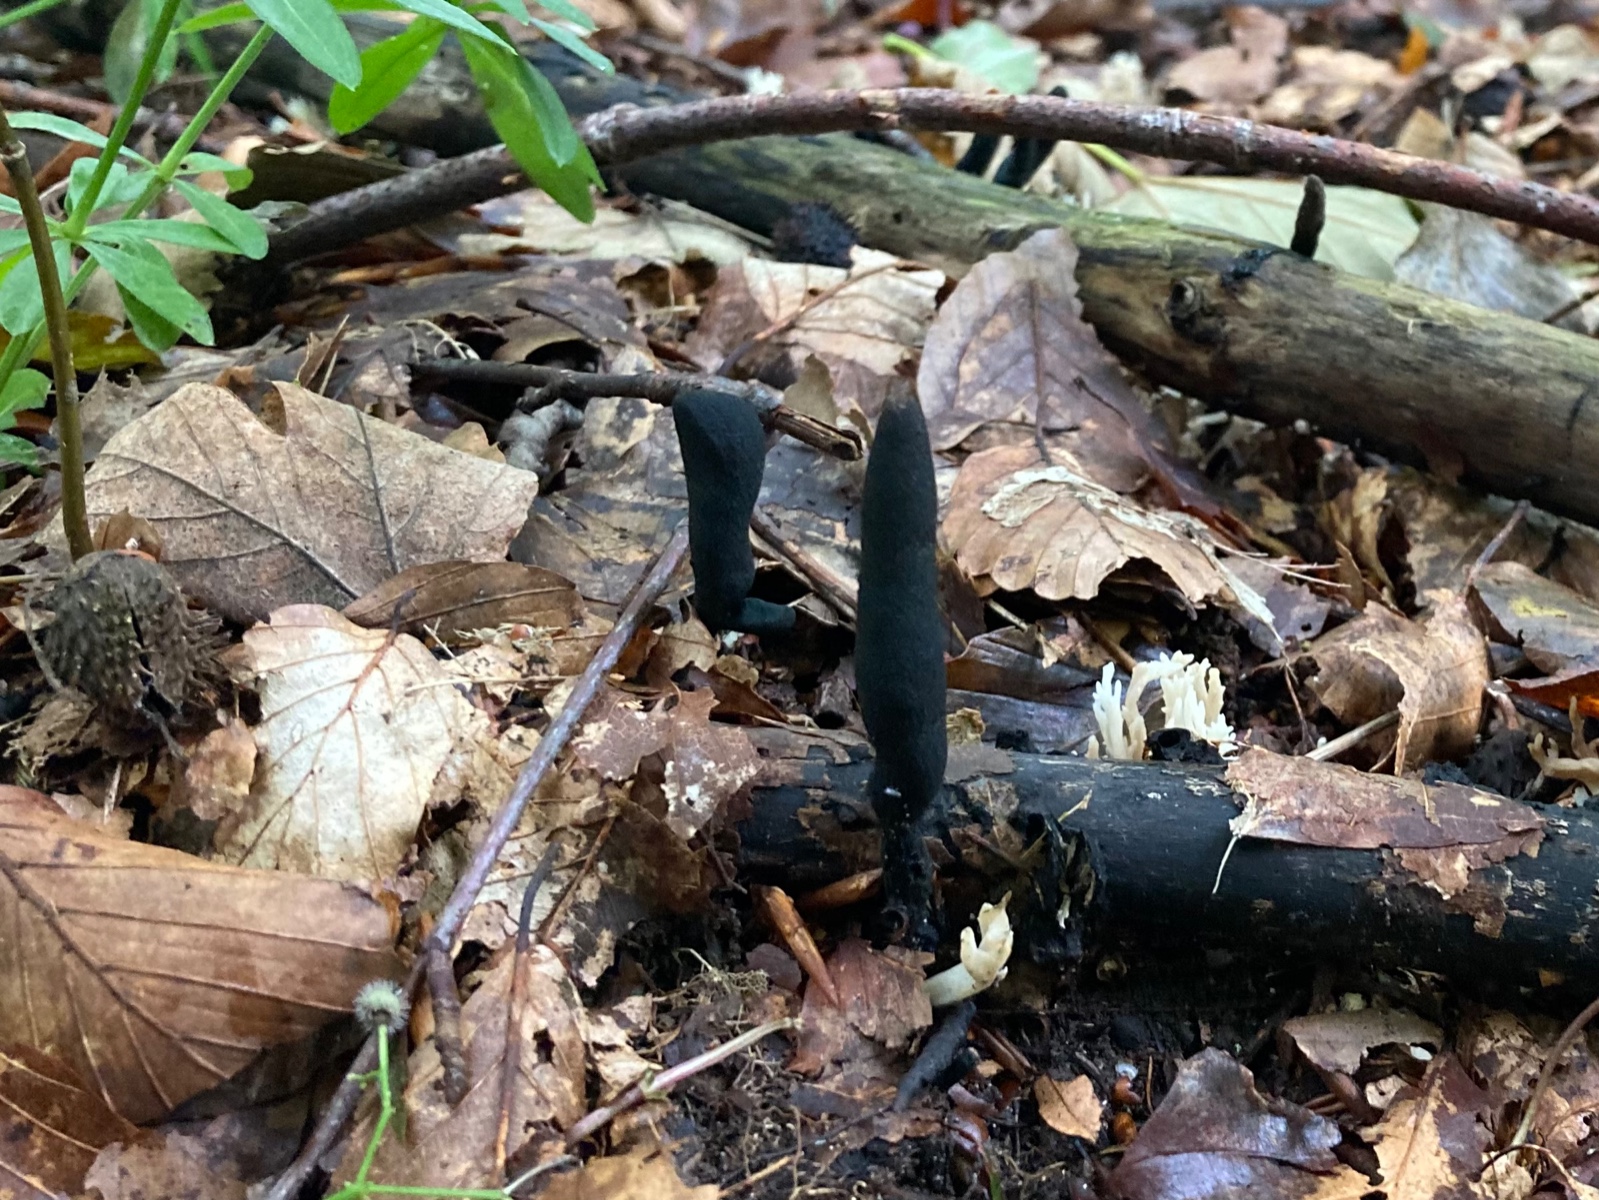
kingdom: Fungi
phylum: Ascomycota
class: Sordariomycetes
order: Xylariales
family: Xylariaceae
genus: Xylaria
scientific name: Xylaria longipes
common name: slank stødsvamp
